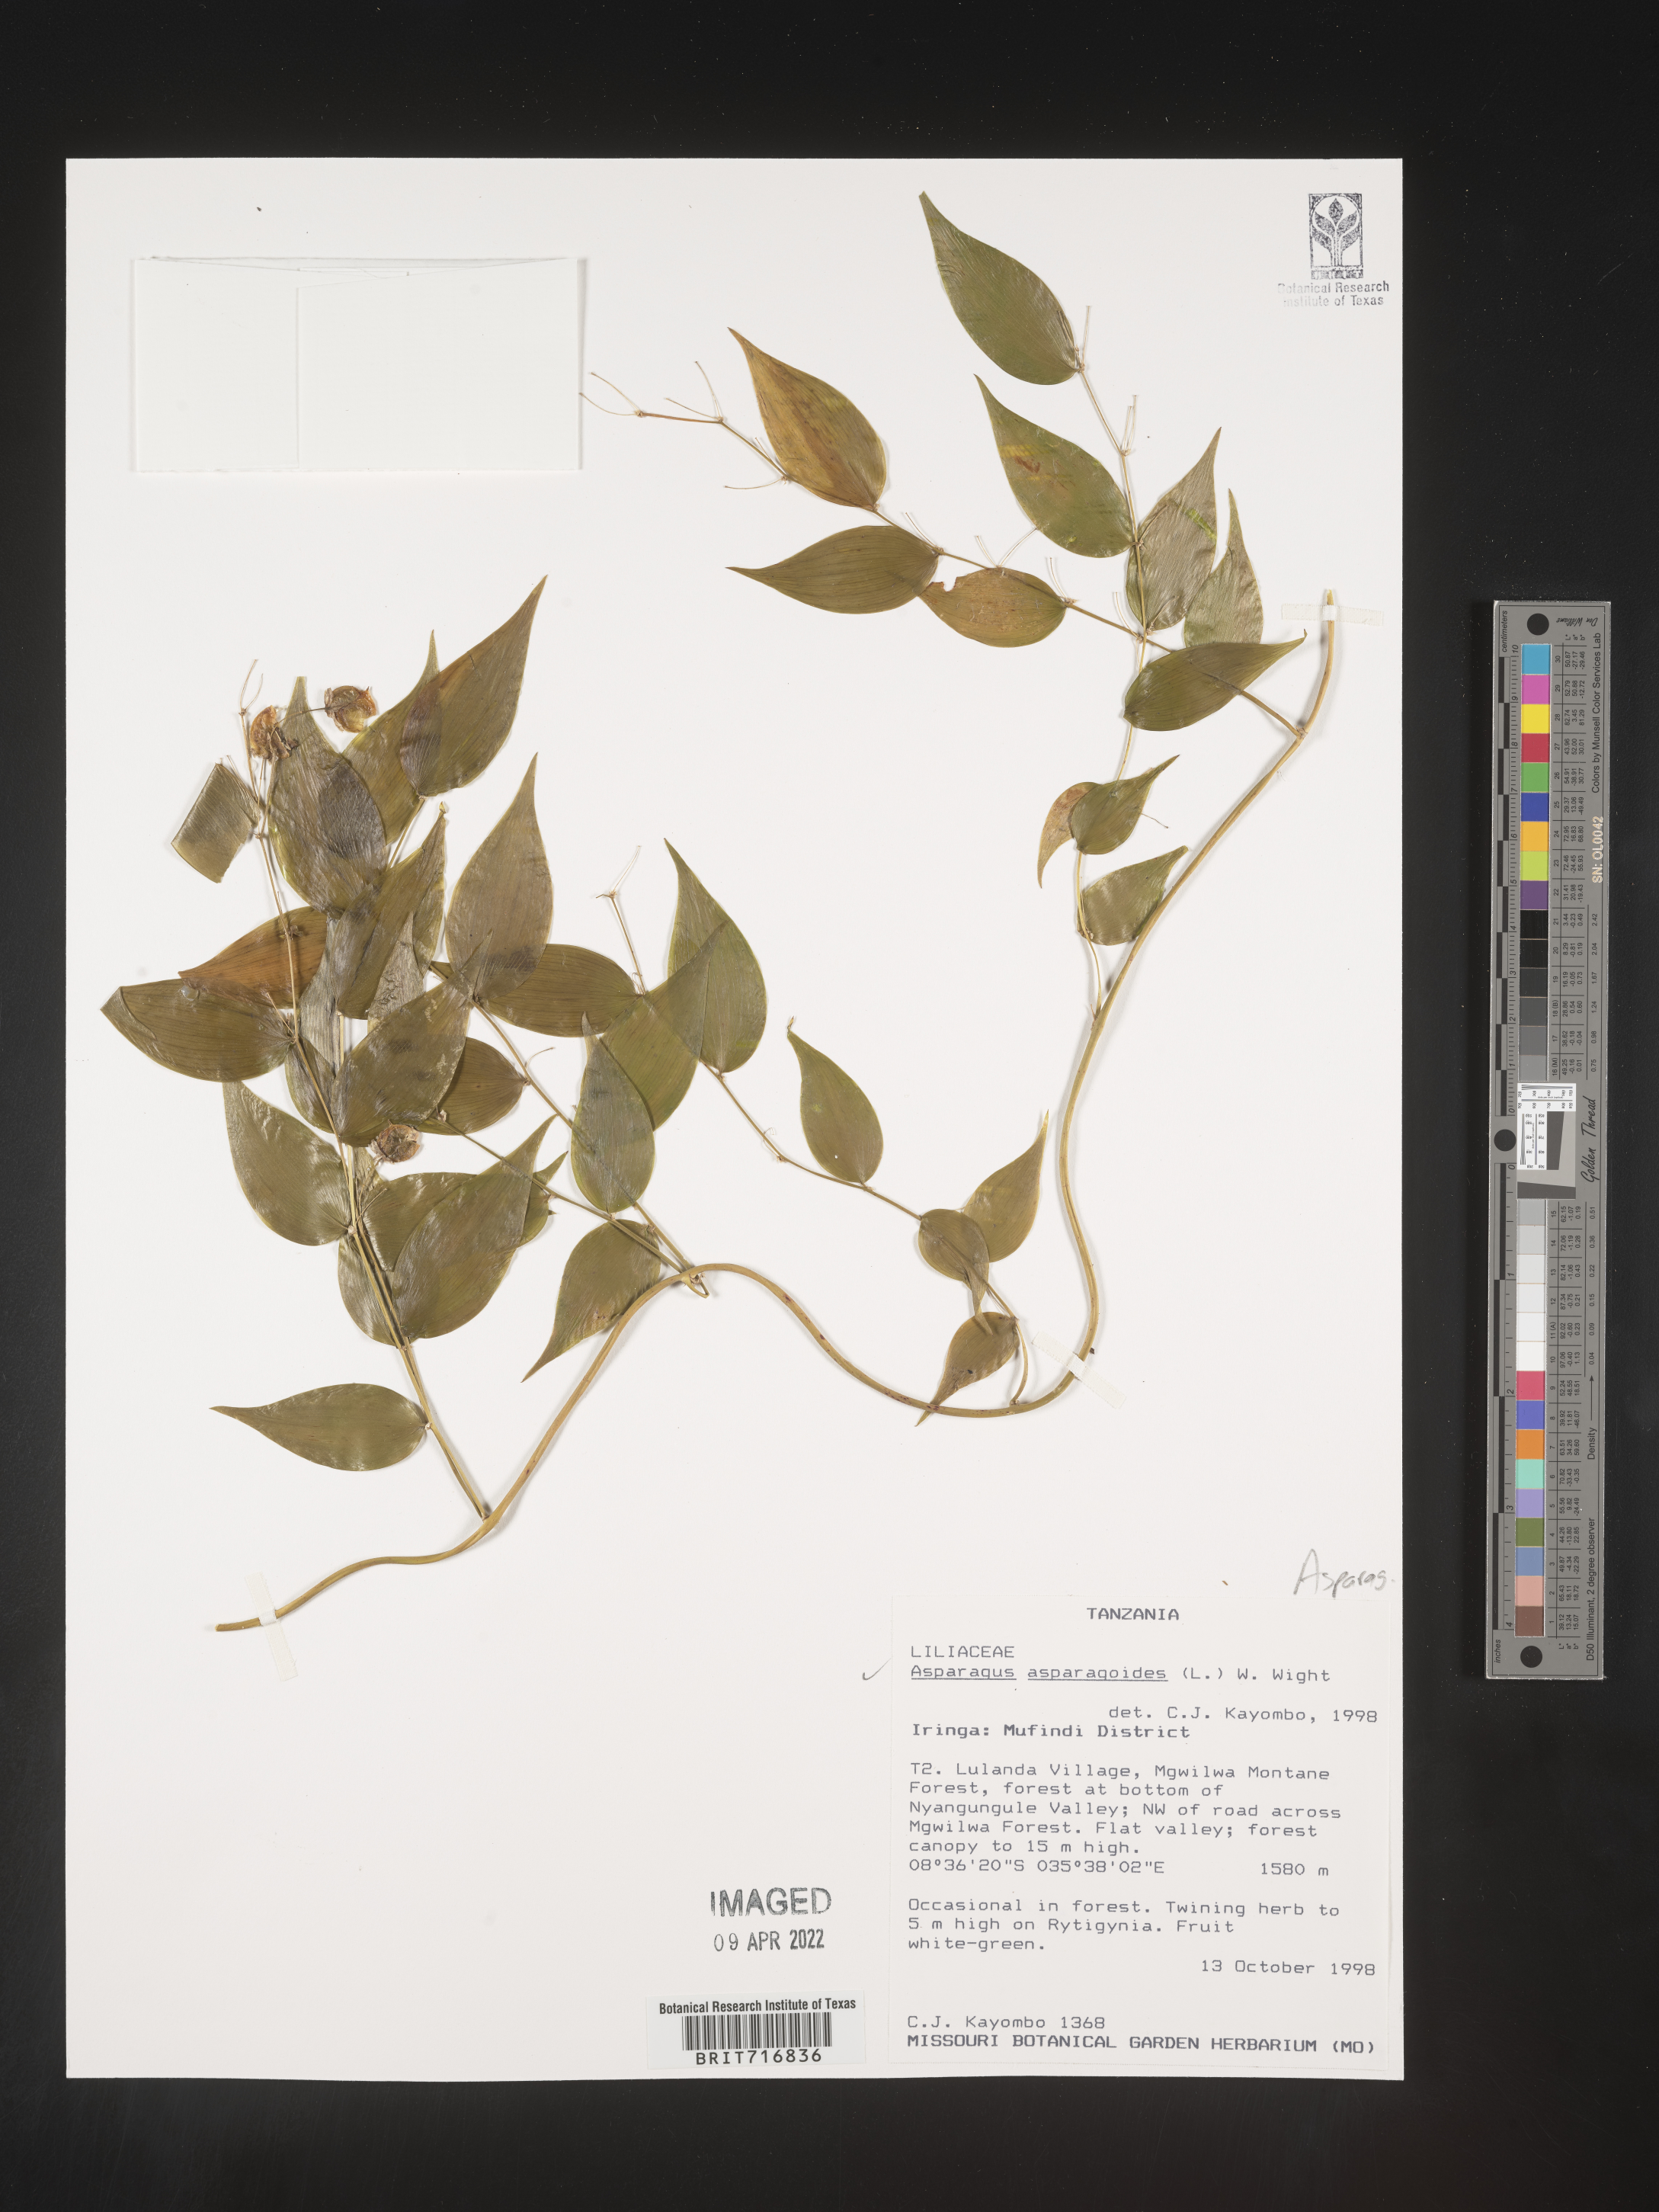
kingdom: Plantae
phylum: Tracheophyta
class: Liliopsida
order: Asparagales
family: Asparagaceae
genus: Asparagus
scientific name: Asparagus
